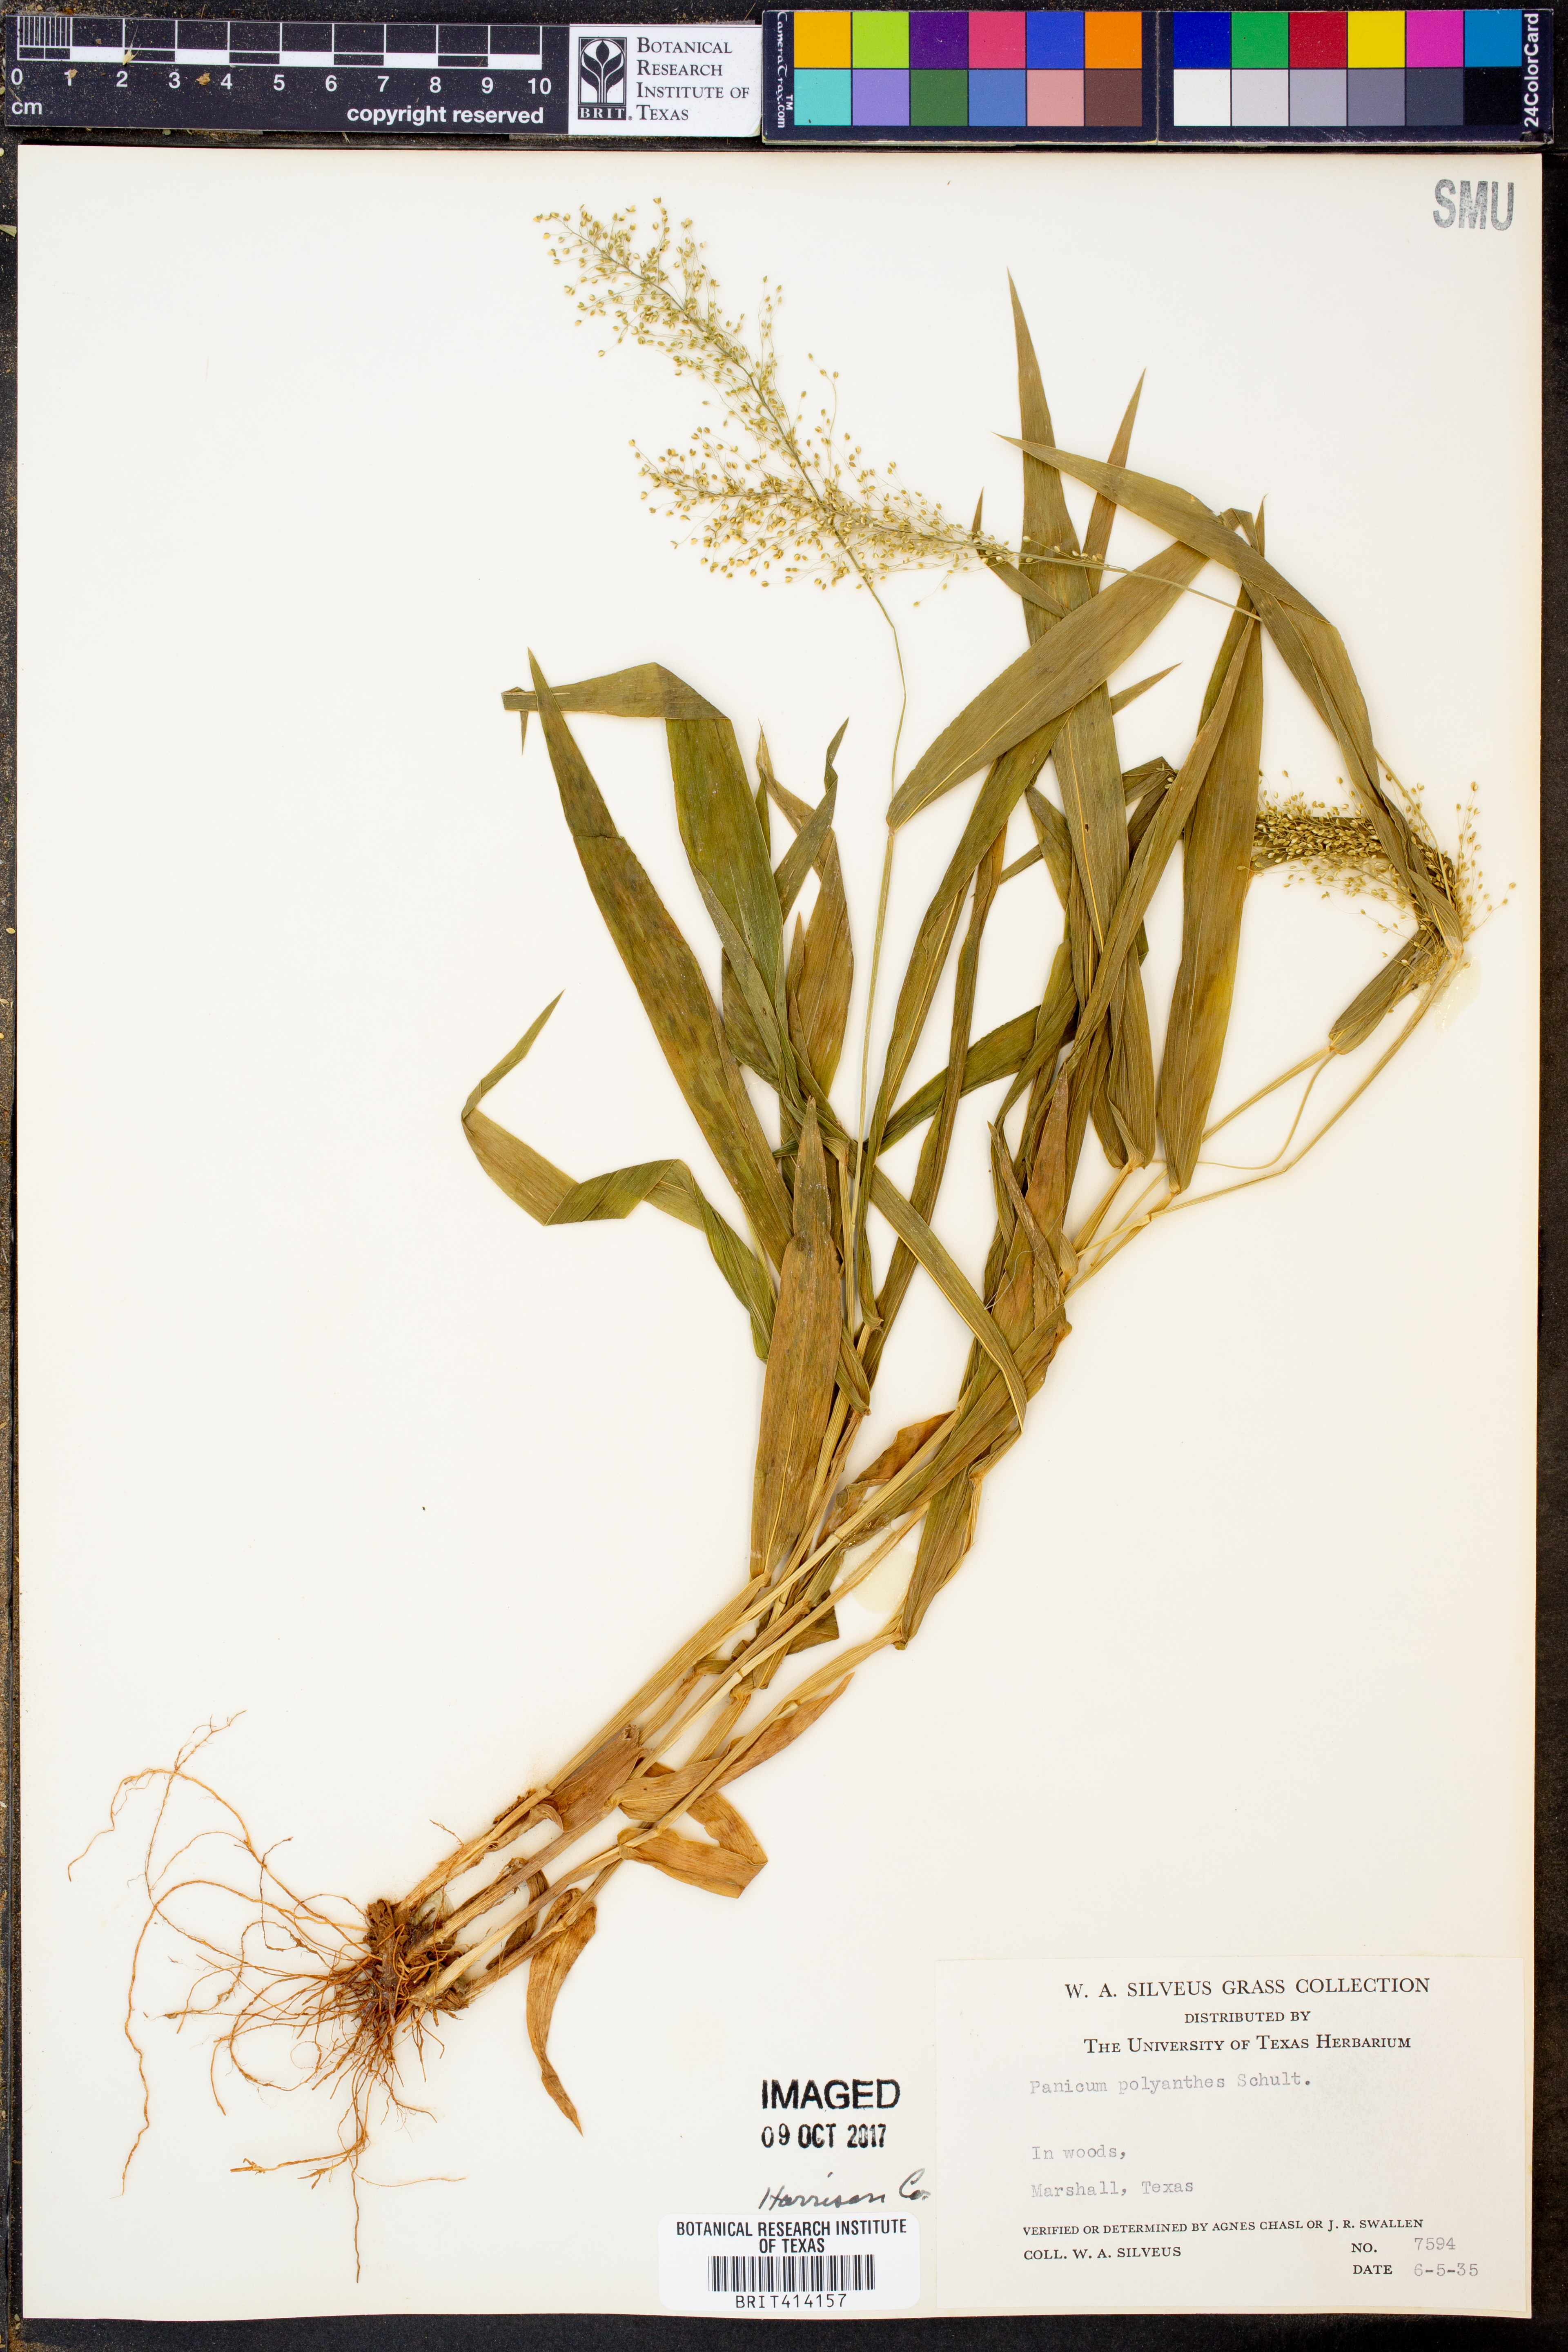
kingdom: Plantae
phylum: Tracheophyta
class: Liliopsida
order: Poales
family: Poaceae
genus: Dichanthelium
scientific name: Dichanthelium polyanthes
